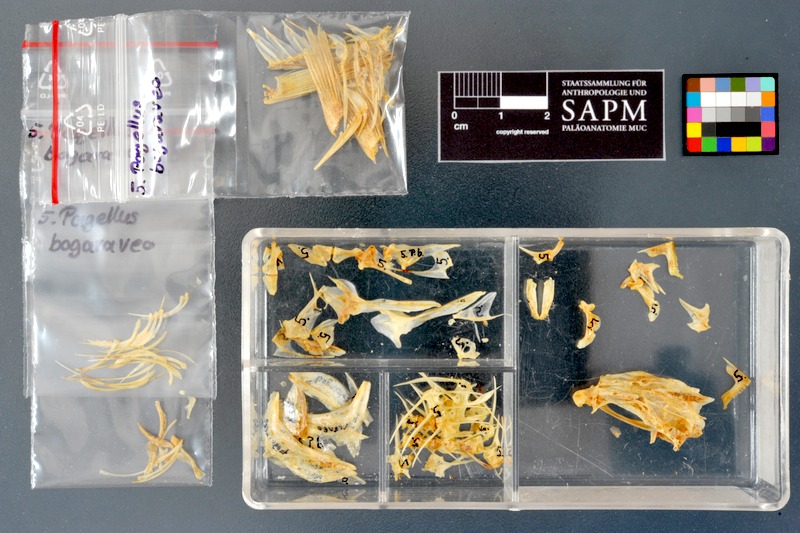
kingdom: Animalia
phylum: Chordata
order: Perciformes
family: Sparidae
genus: Pagellus
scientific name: Pagellus bogaraveo
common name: Red sea-bream
